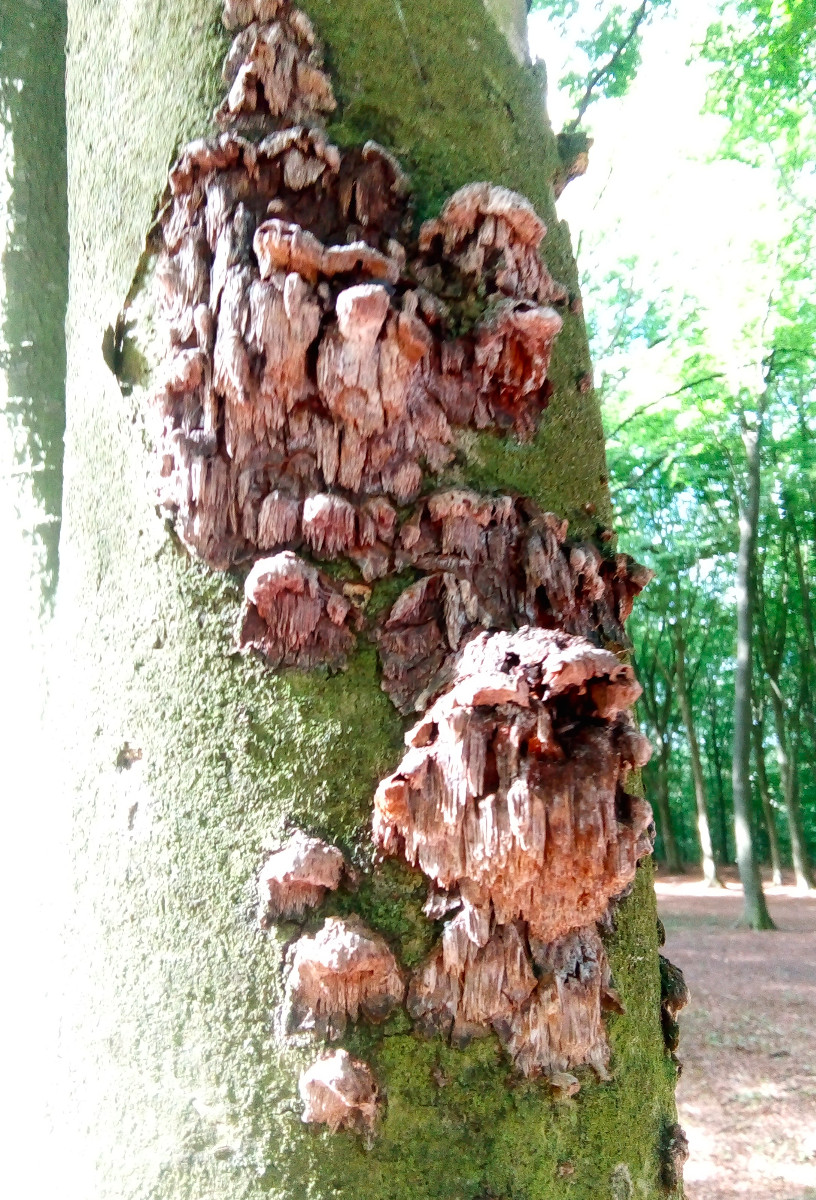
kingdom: Fungi
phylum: Basidiomycota
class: Agaricomycetes
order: Hymenochaetales
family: Hymenochaetaceae
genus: Mensularia
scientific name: Mensularia nodulosa
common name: bøge-spejlporesvamp
